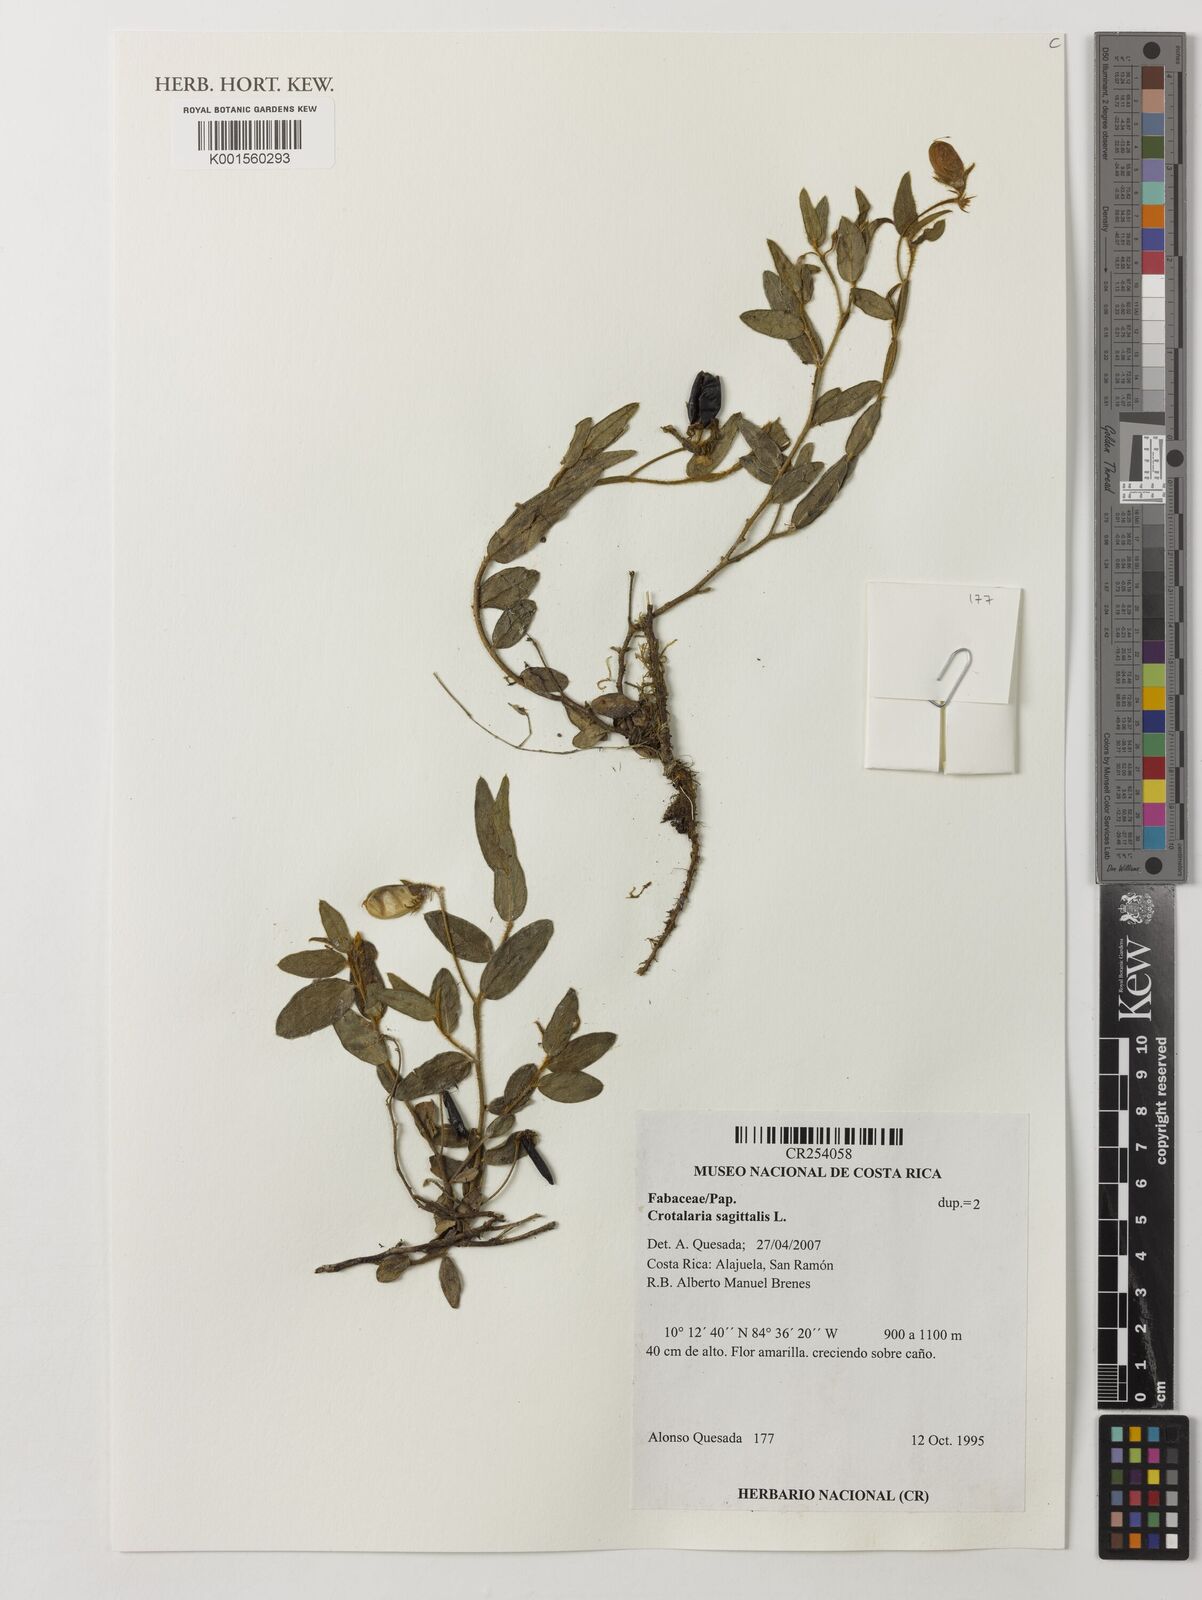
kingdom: Plantae
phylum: Tracheophyta
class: Magnoliopsida
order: Fabales
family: Fabaceae
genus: Crotalaria
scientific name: Crotalaria sagittalis
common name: Arrowhead rattlebox
